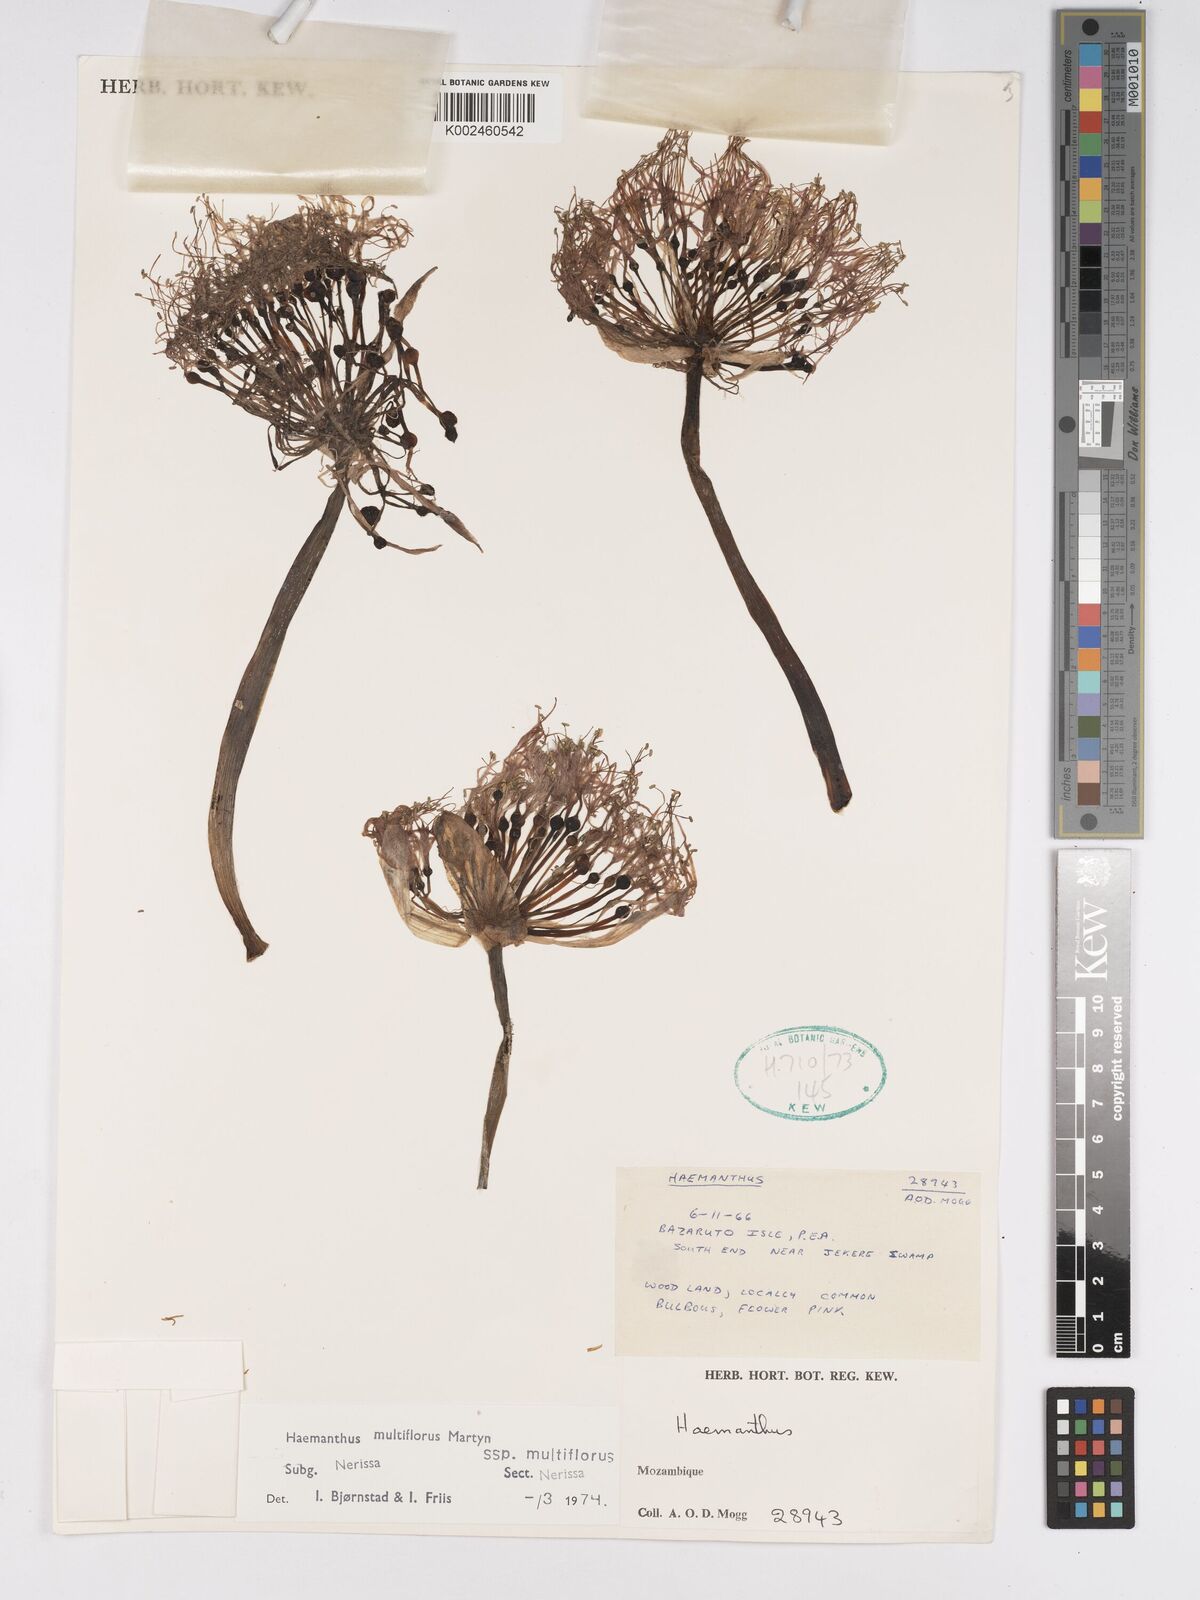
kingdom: Plantae
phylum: Tracheophyta
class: Liliopsida
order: Asparagales
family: Amaryllidaceae
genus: Scadoxus
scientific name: Scadoxus multiflorus
